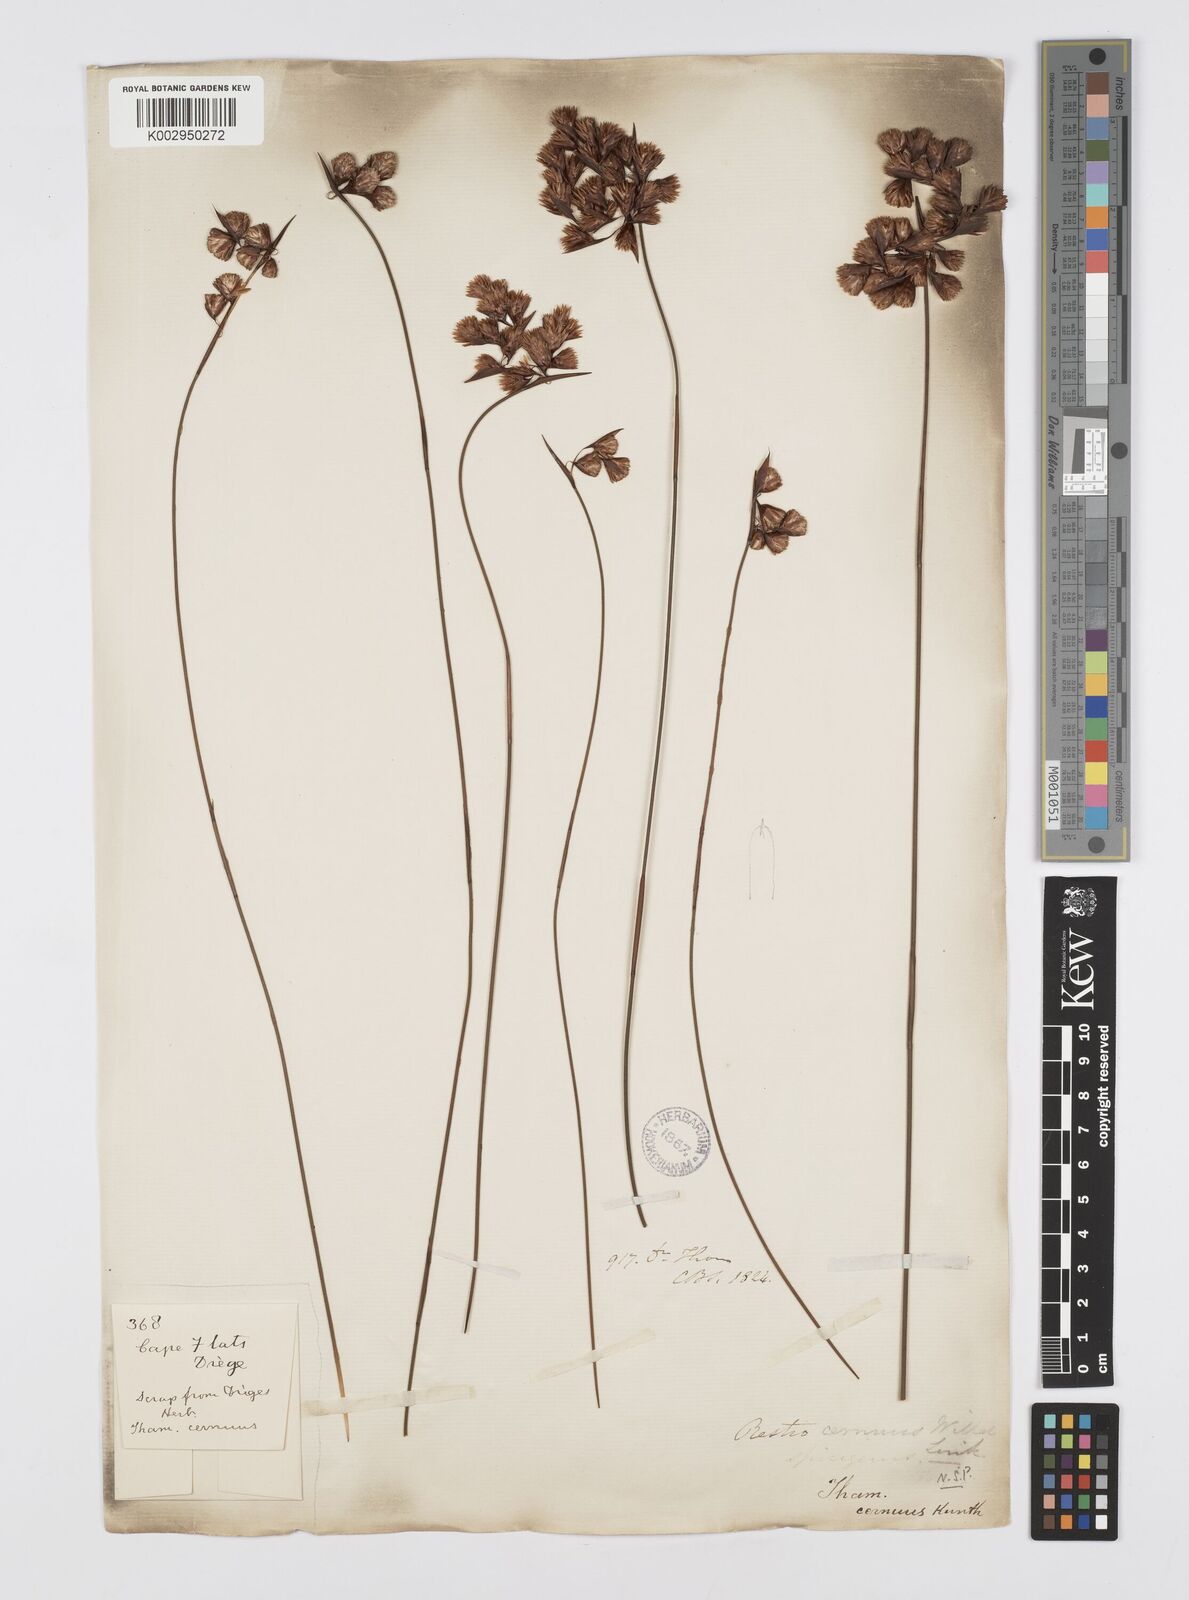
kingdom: Plantae
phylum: Tracheophyta
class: Liliopsida
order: Poales
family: Restionaceae
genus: Staberoha
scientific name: Staberoha cernua
